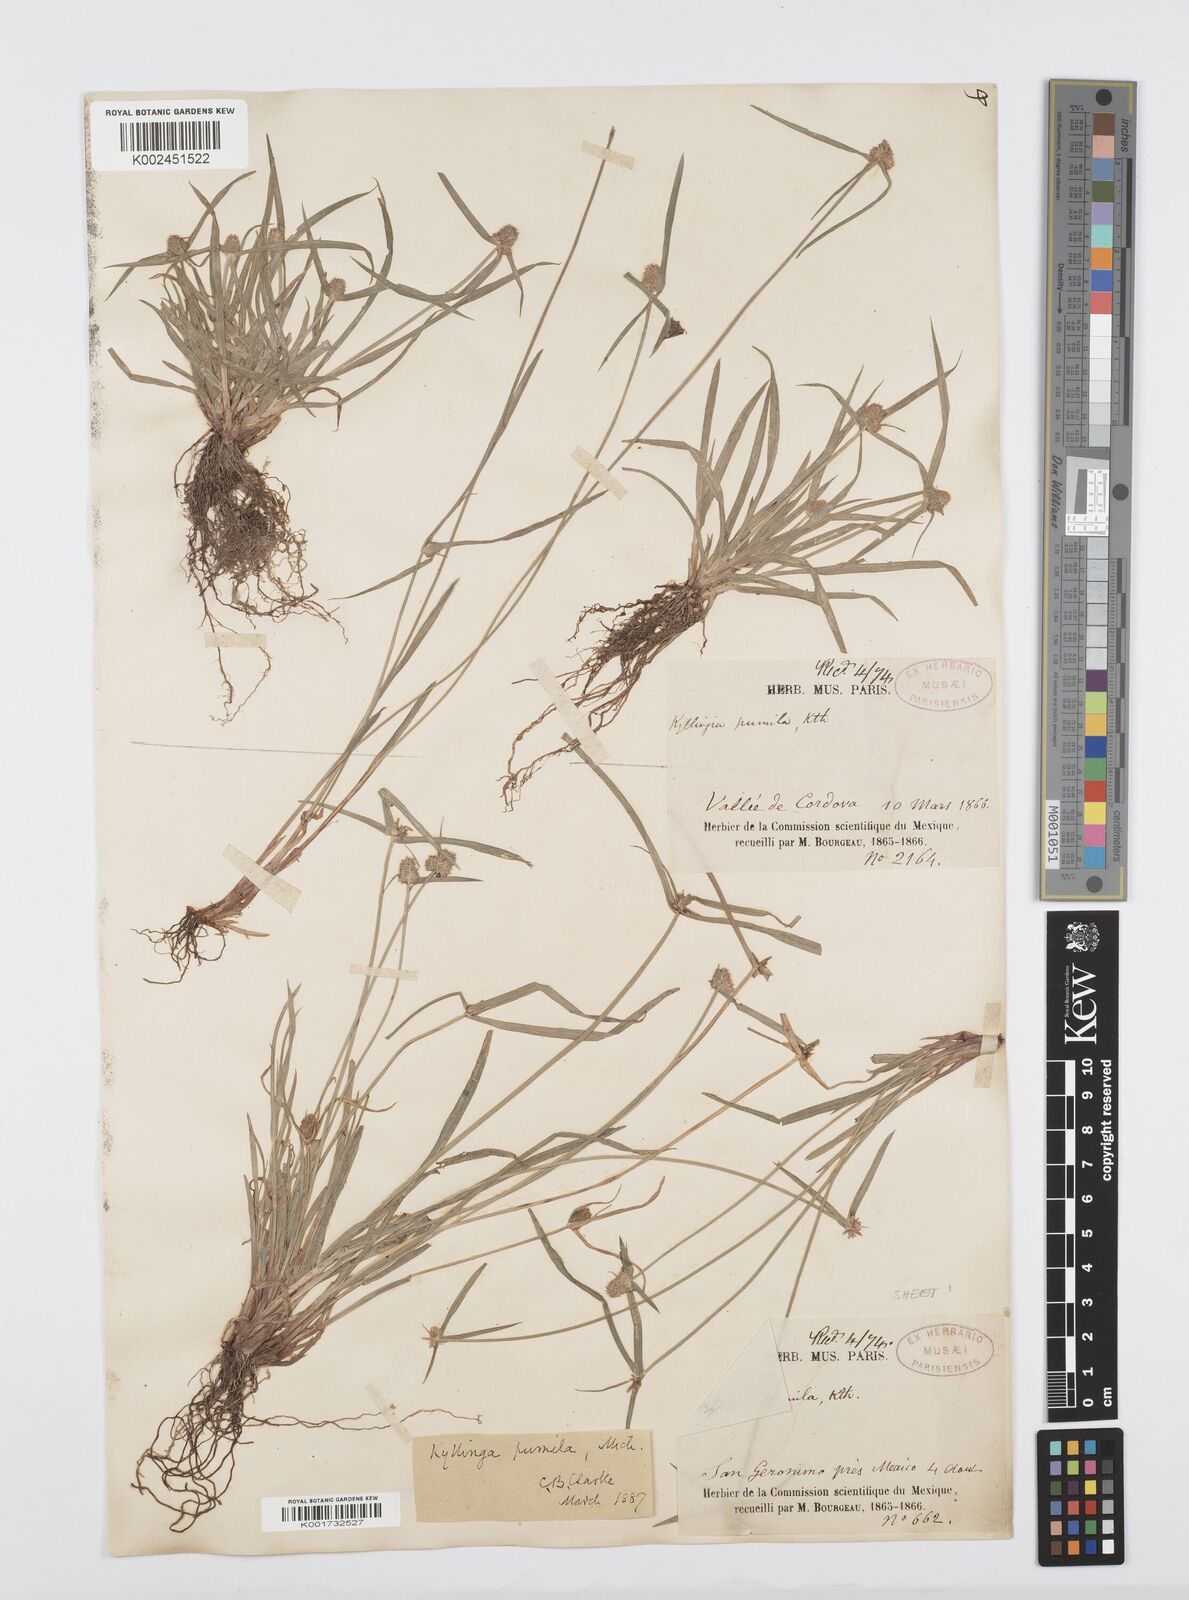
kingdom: Plantae
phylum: Tracheophyta
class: Liliopsida
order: Poales
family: Cyperaceae
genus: Cyperus
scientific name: Cyperus hortensis
